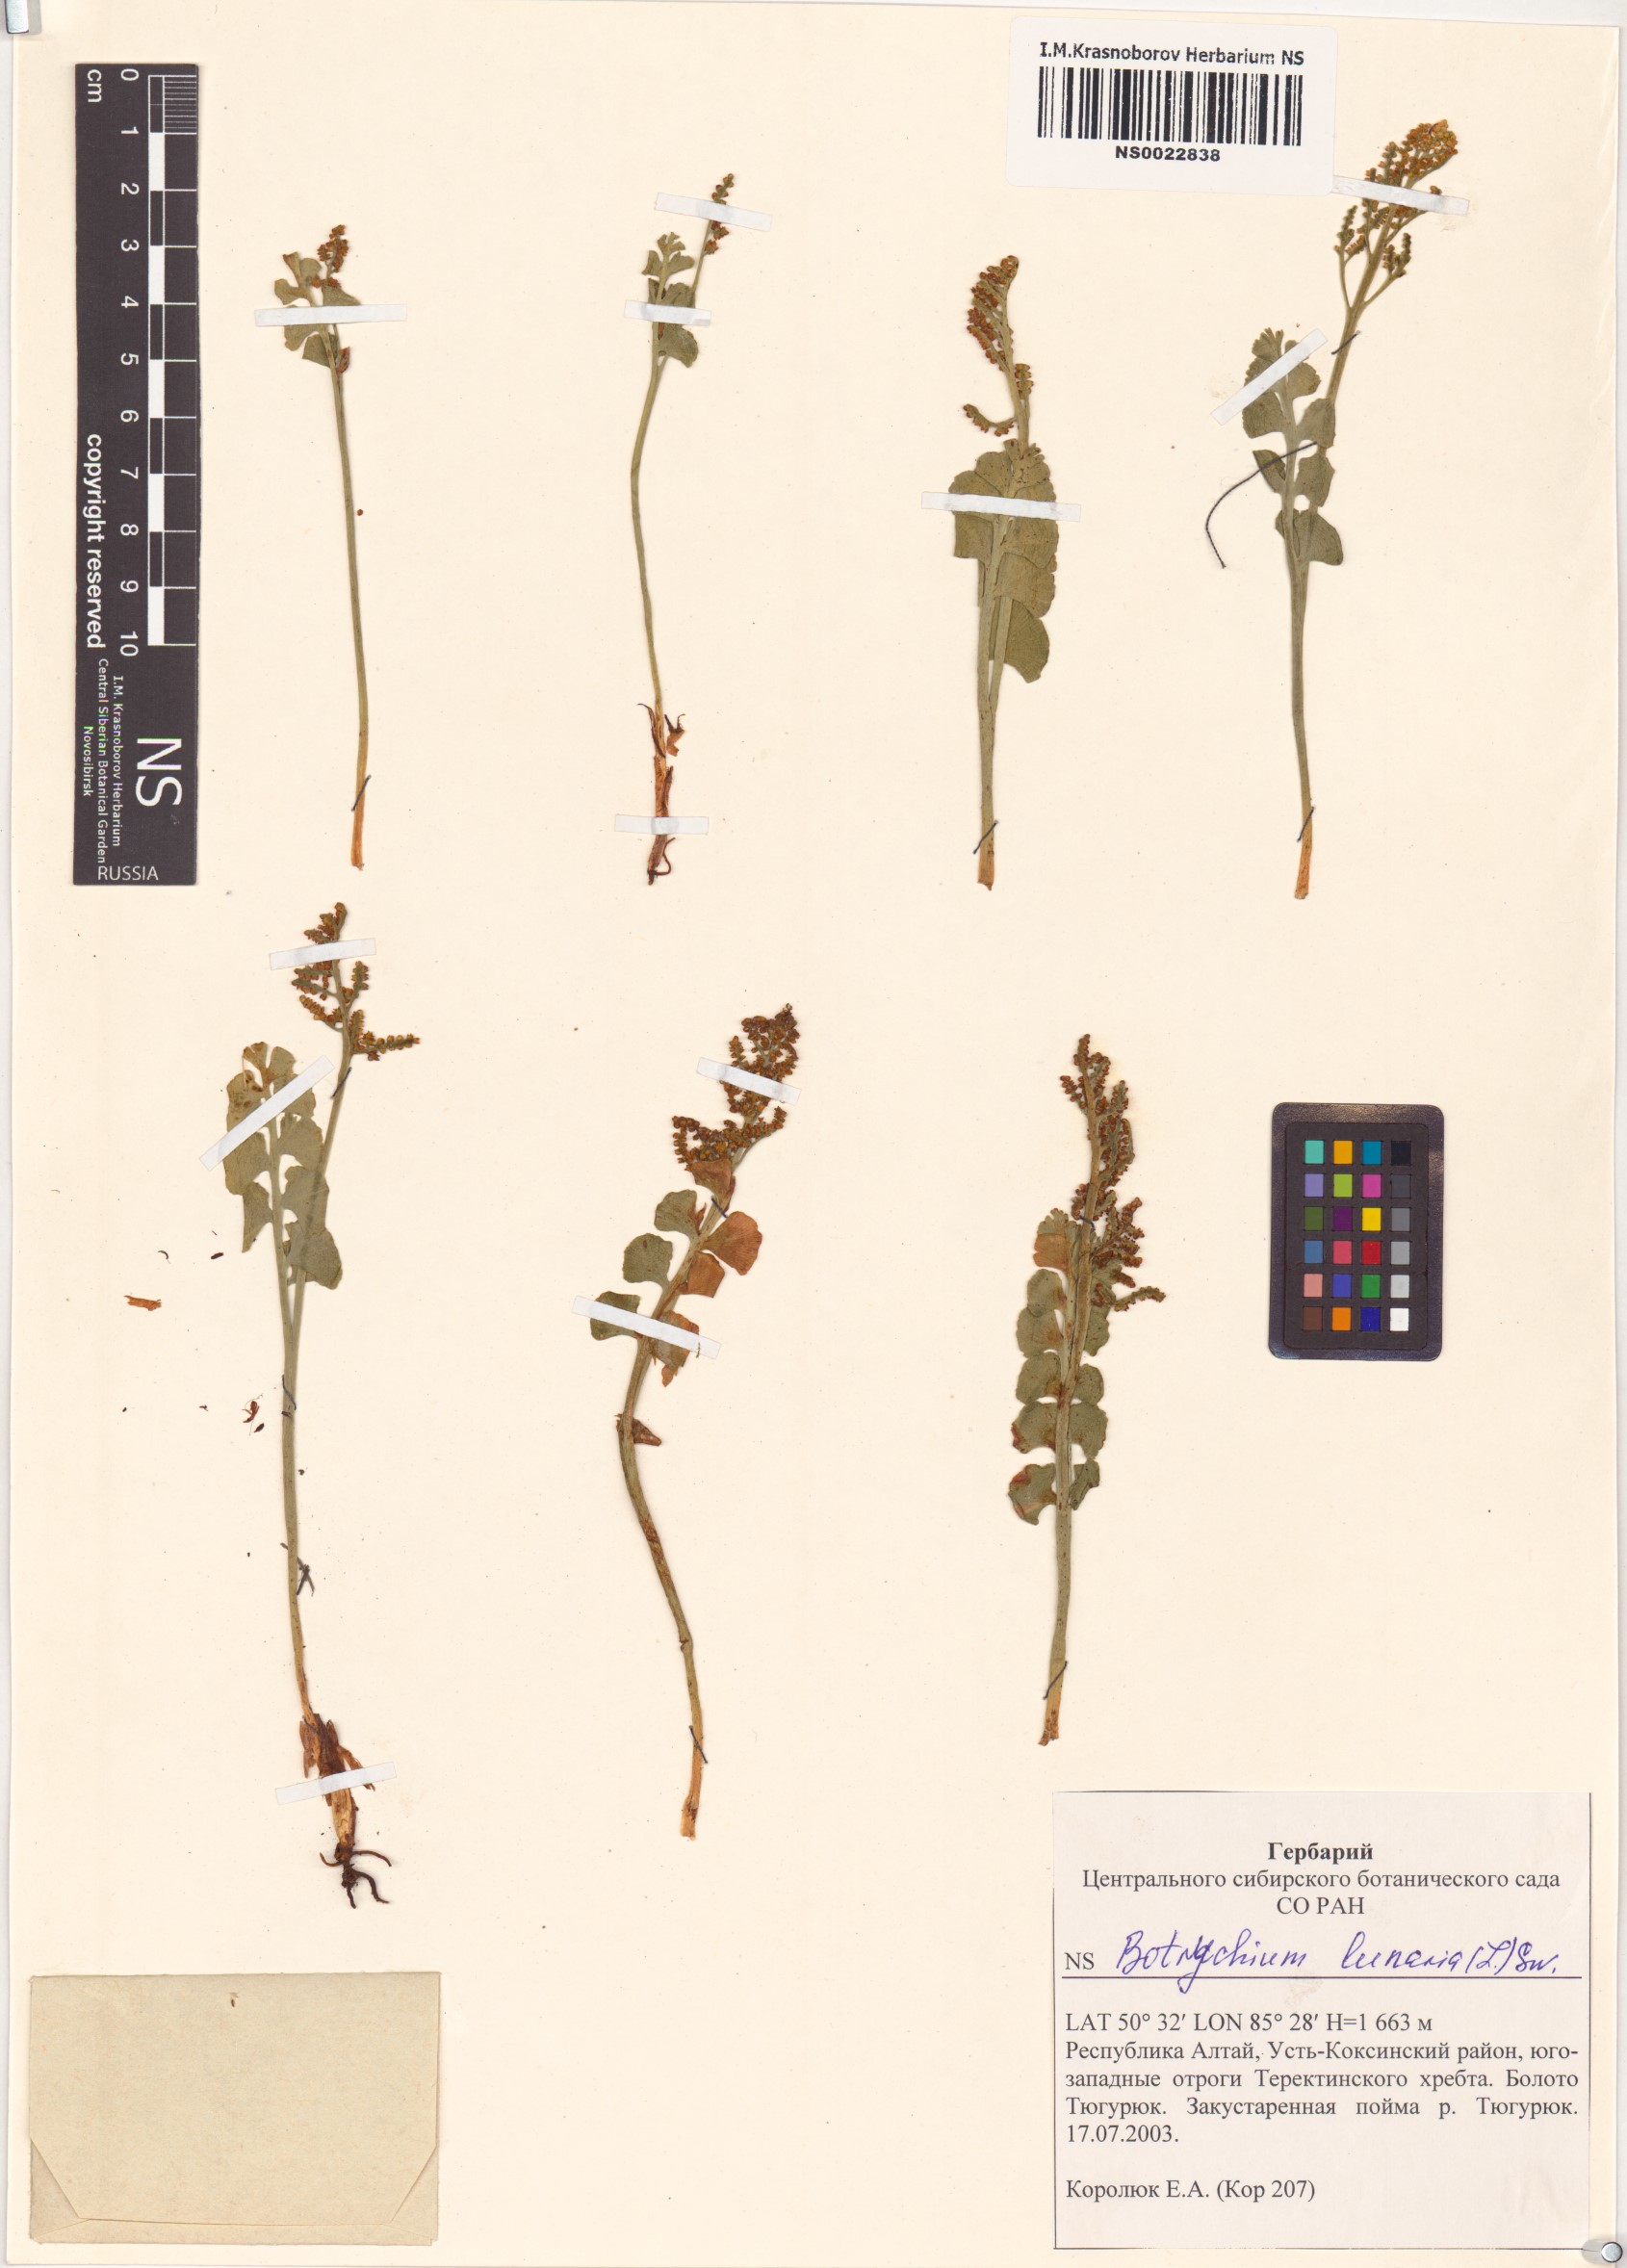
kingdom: Plantae
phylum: Tracheophyta
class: Polypodiopsida
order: Ophioglossales
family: Ophioglossaceae
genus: Botrychium
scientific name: Botrychium lunaria
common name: Moonwort
